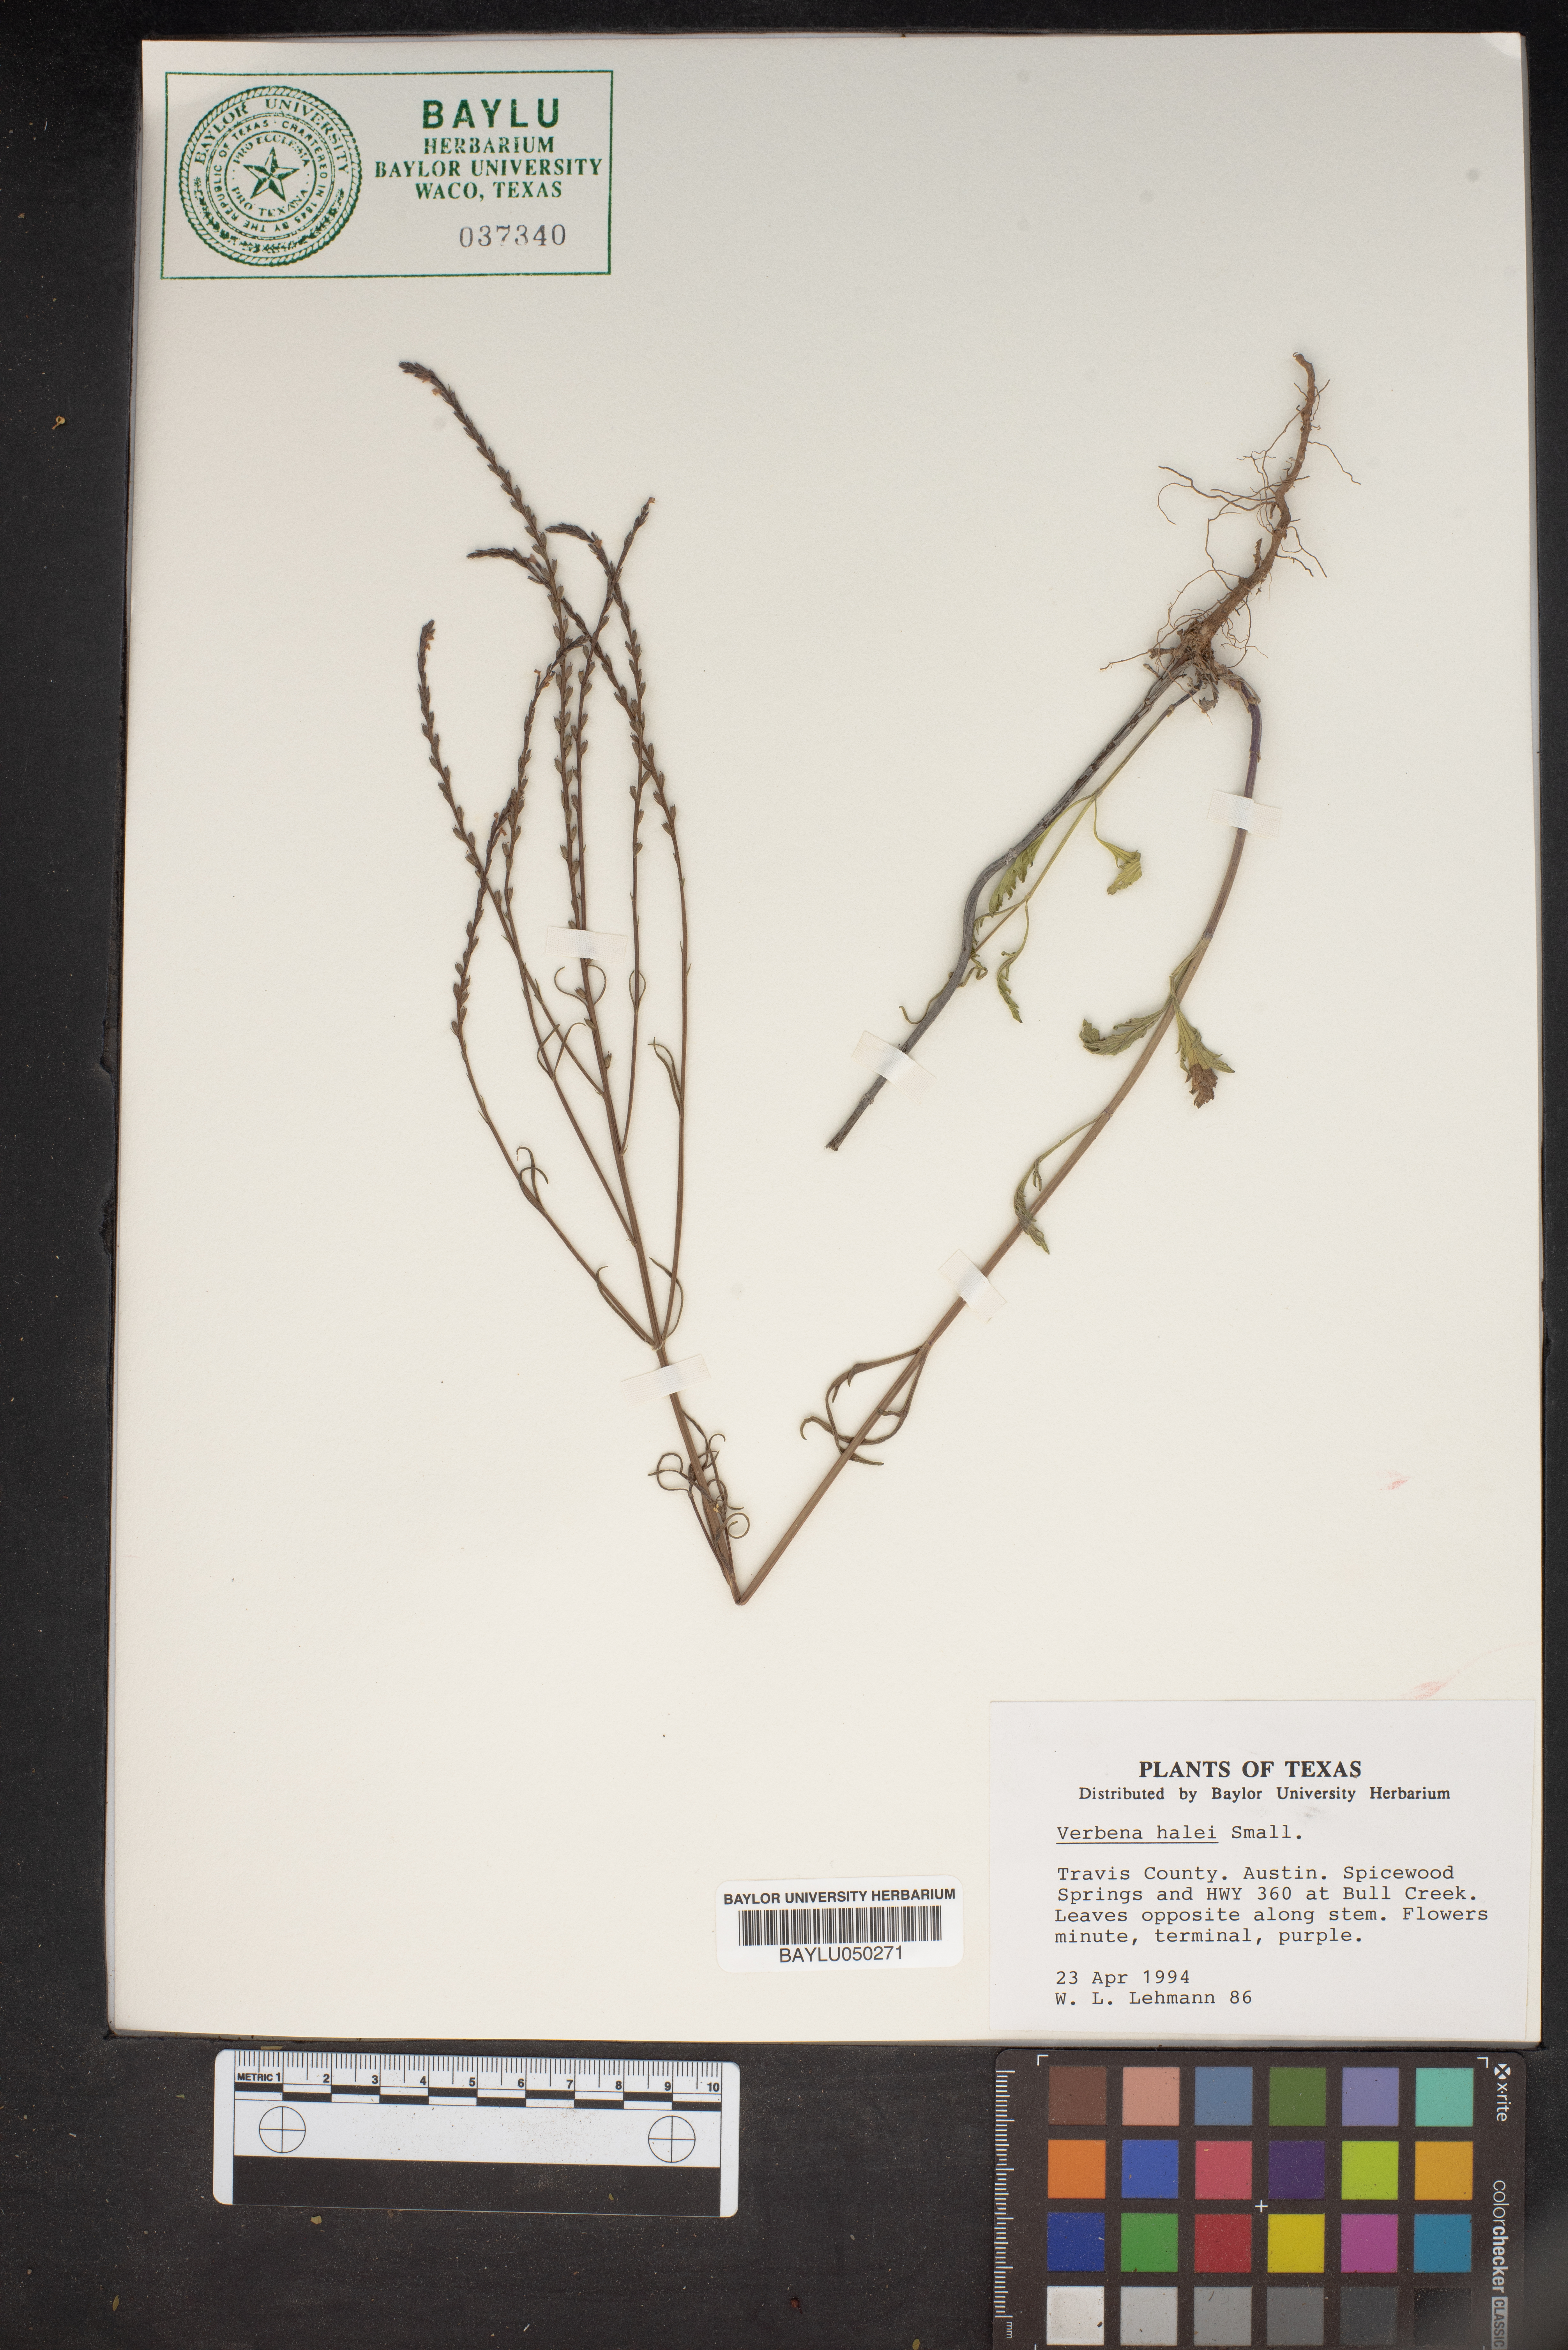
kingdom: Plantae
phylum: Tracheophyta
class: Magnoliopsida
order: Lamiales
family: Verbenaceae
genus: Verbena
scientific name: Verbena halei
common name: Texas vervain
